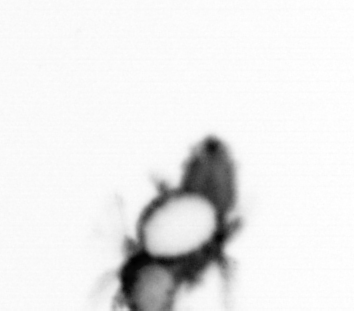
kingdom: Animalia
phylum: Annelida
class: Polychaeta
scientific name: Polychaeta
